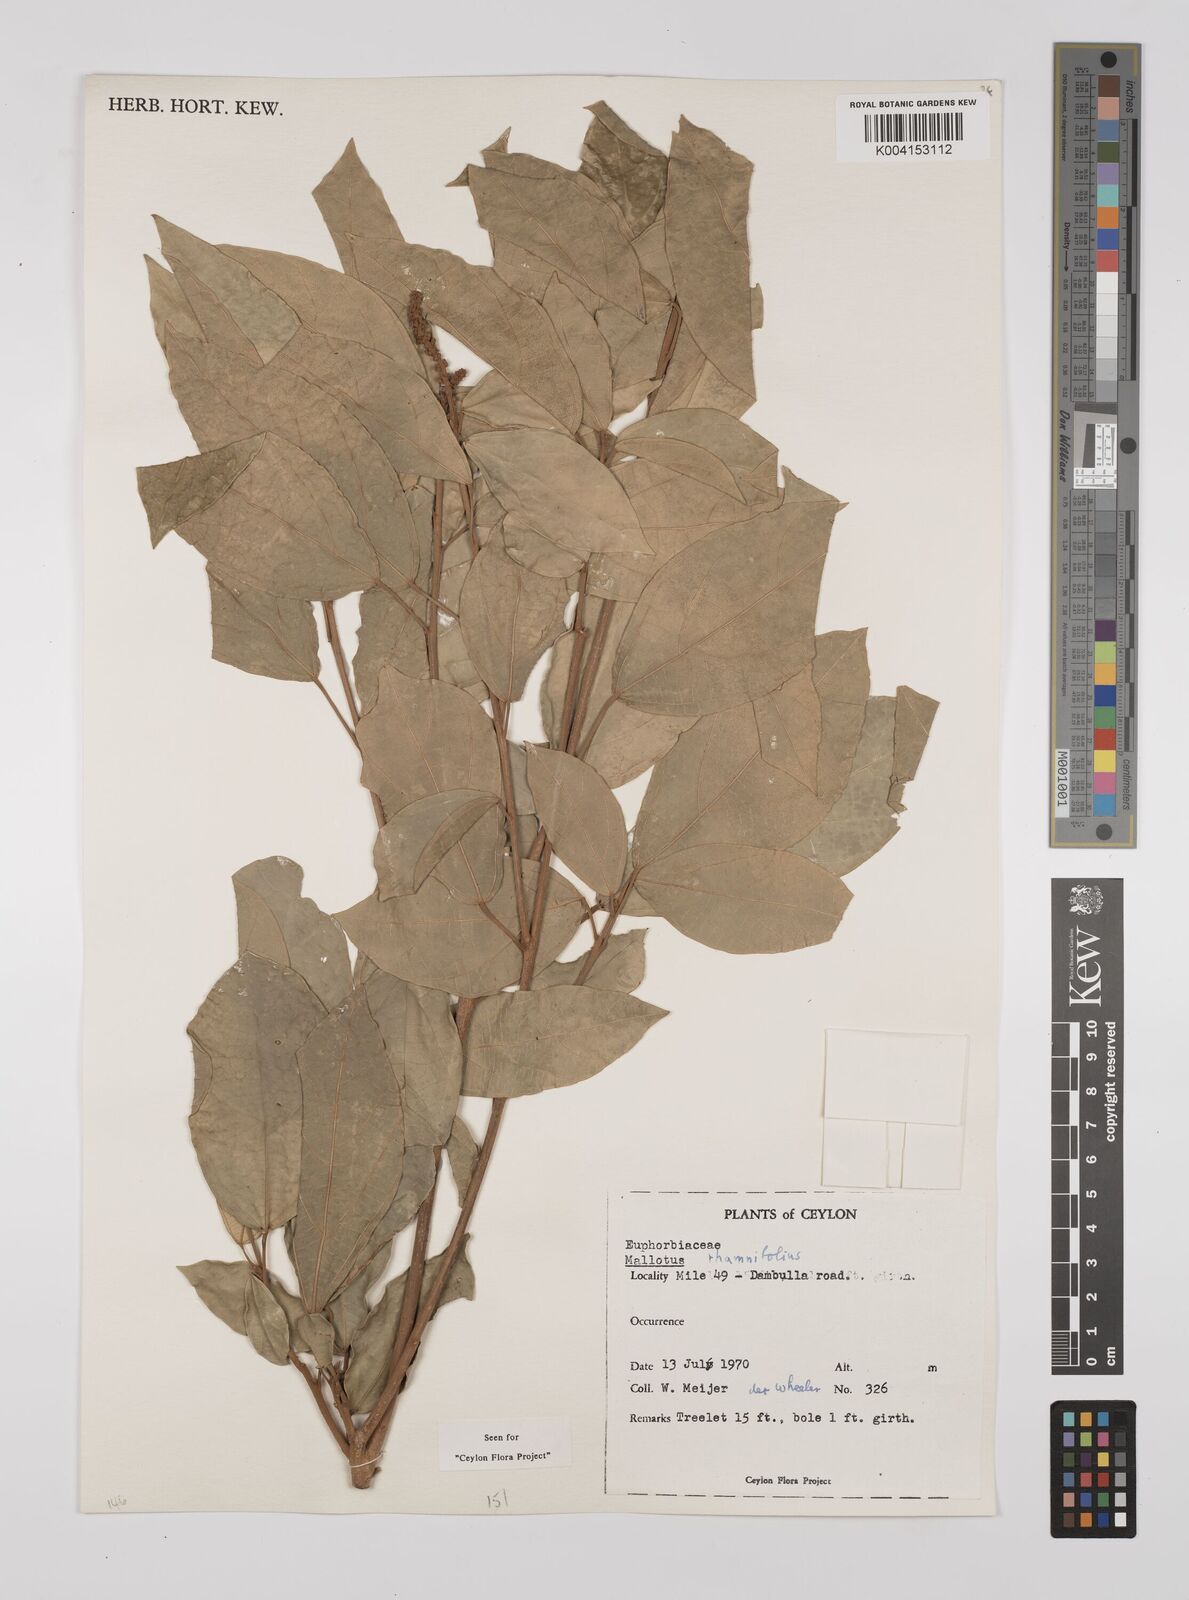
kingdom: Plantae
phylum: Tracheophyta
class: Magnoliopsida
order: Malpighiales
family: Euphorbiaceae
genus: Mallotus
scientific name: Mallotus rhamnifolius
